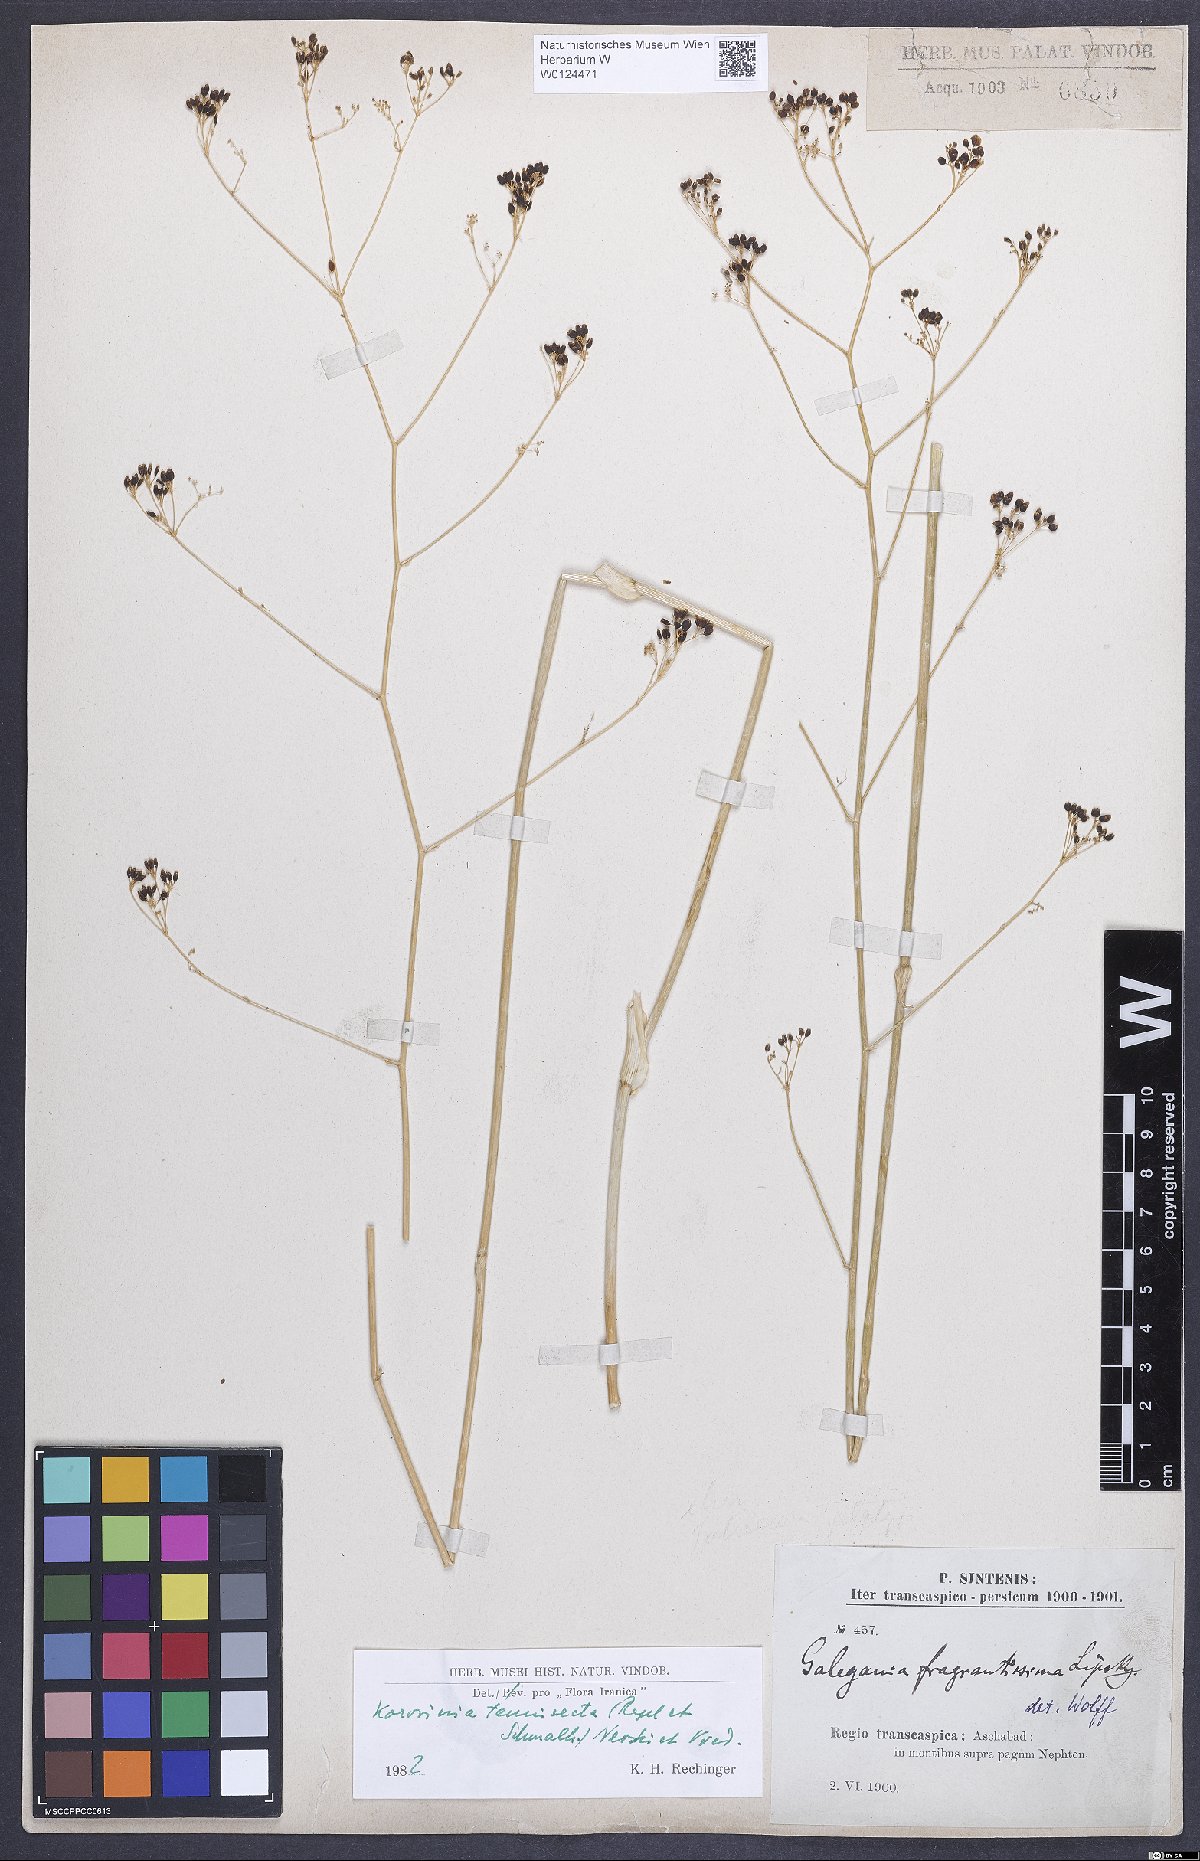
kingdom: Plantae
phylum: Tracheophyta
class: Magnoliopsida
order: Apiales
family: Apiaceae
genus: Galagania
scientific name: Galagania tenuisecta
